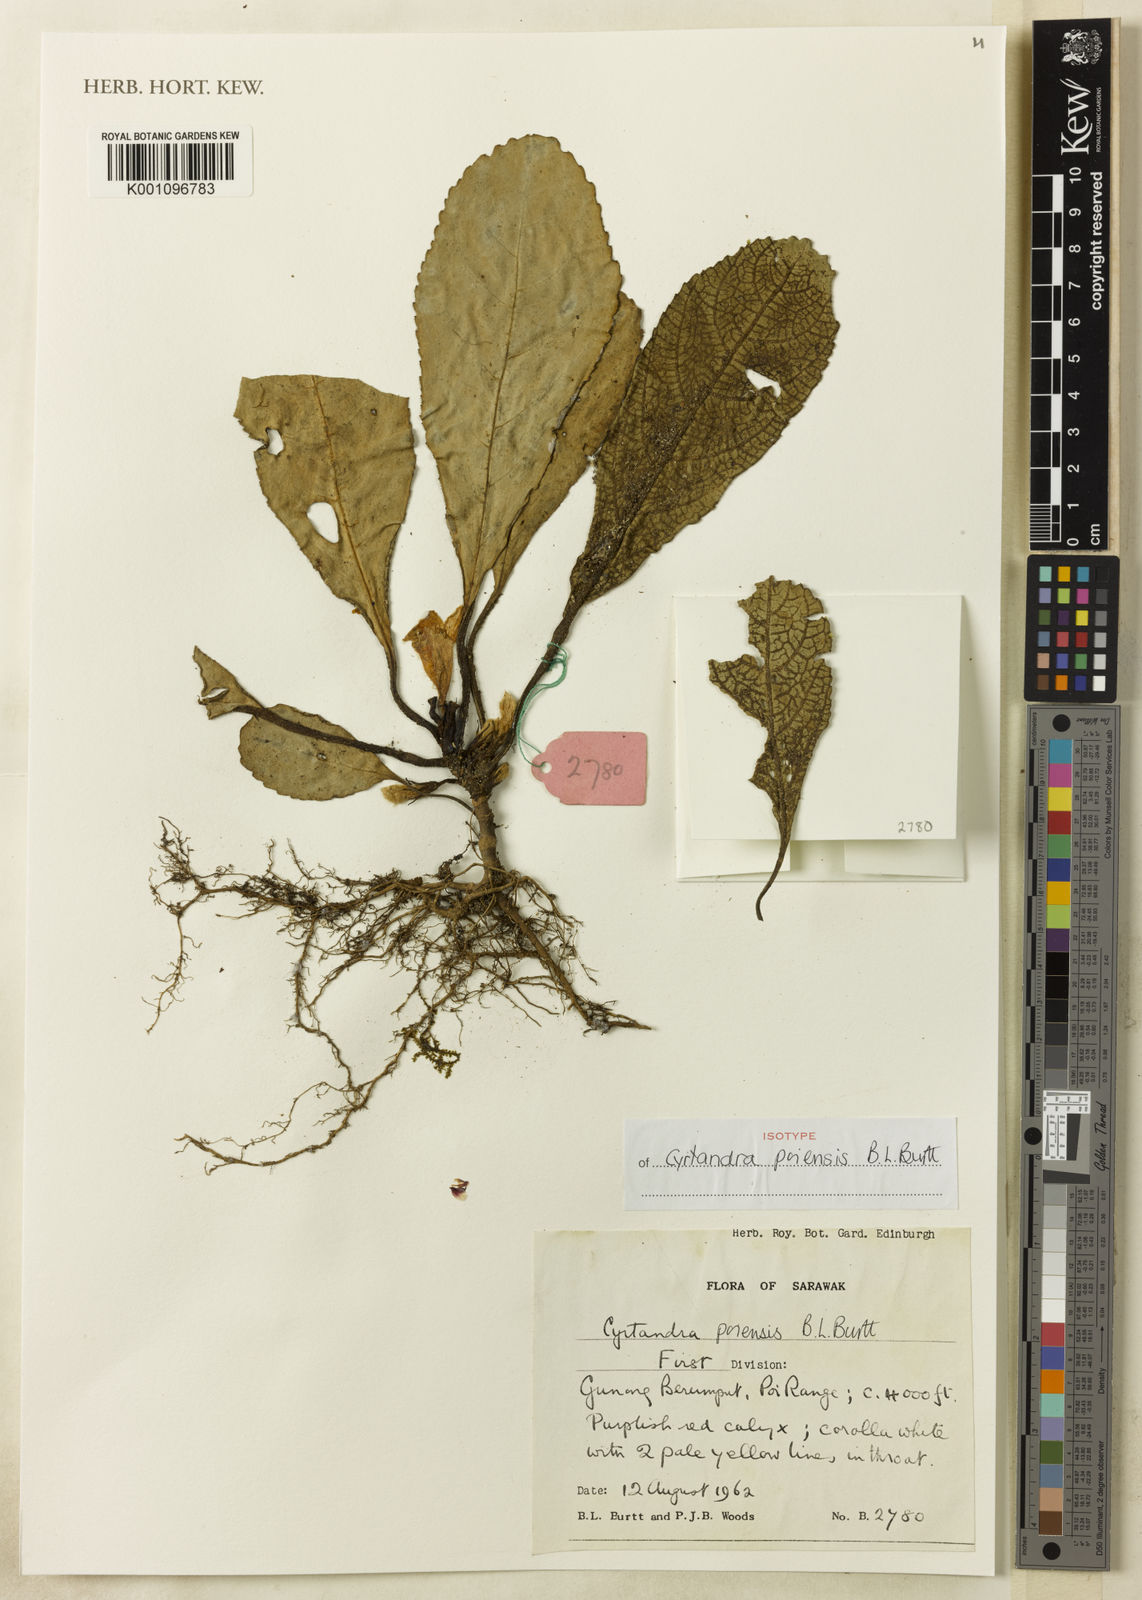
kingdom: Plantae
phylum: Tracheophyta
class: Magnoliopsida
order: Lamiales
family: Gesneriaceae
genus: Cyrtandra
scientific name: Cyrtandra poiensis
